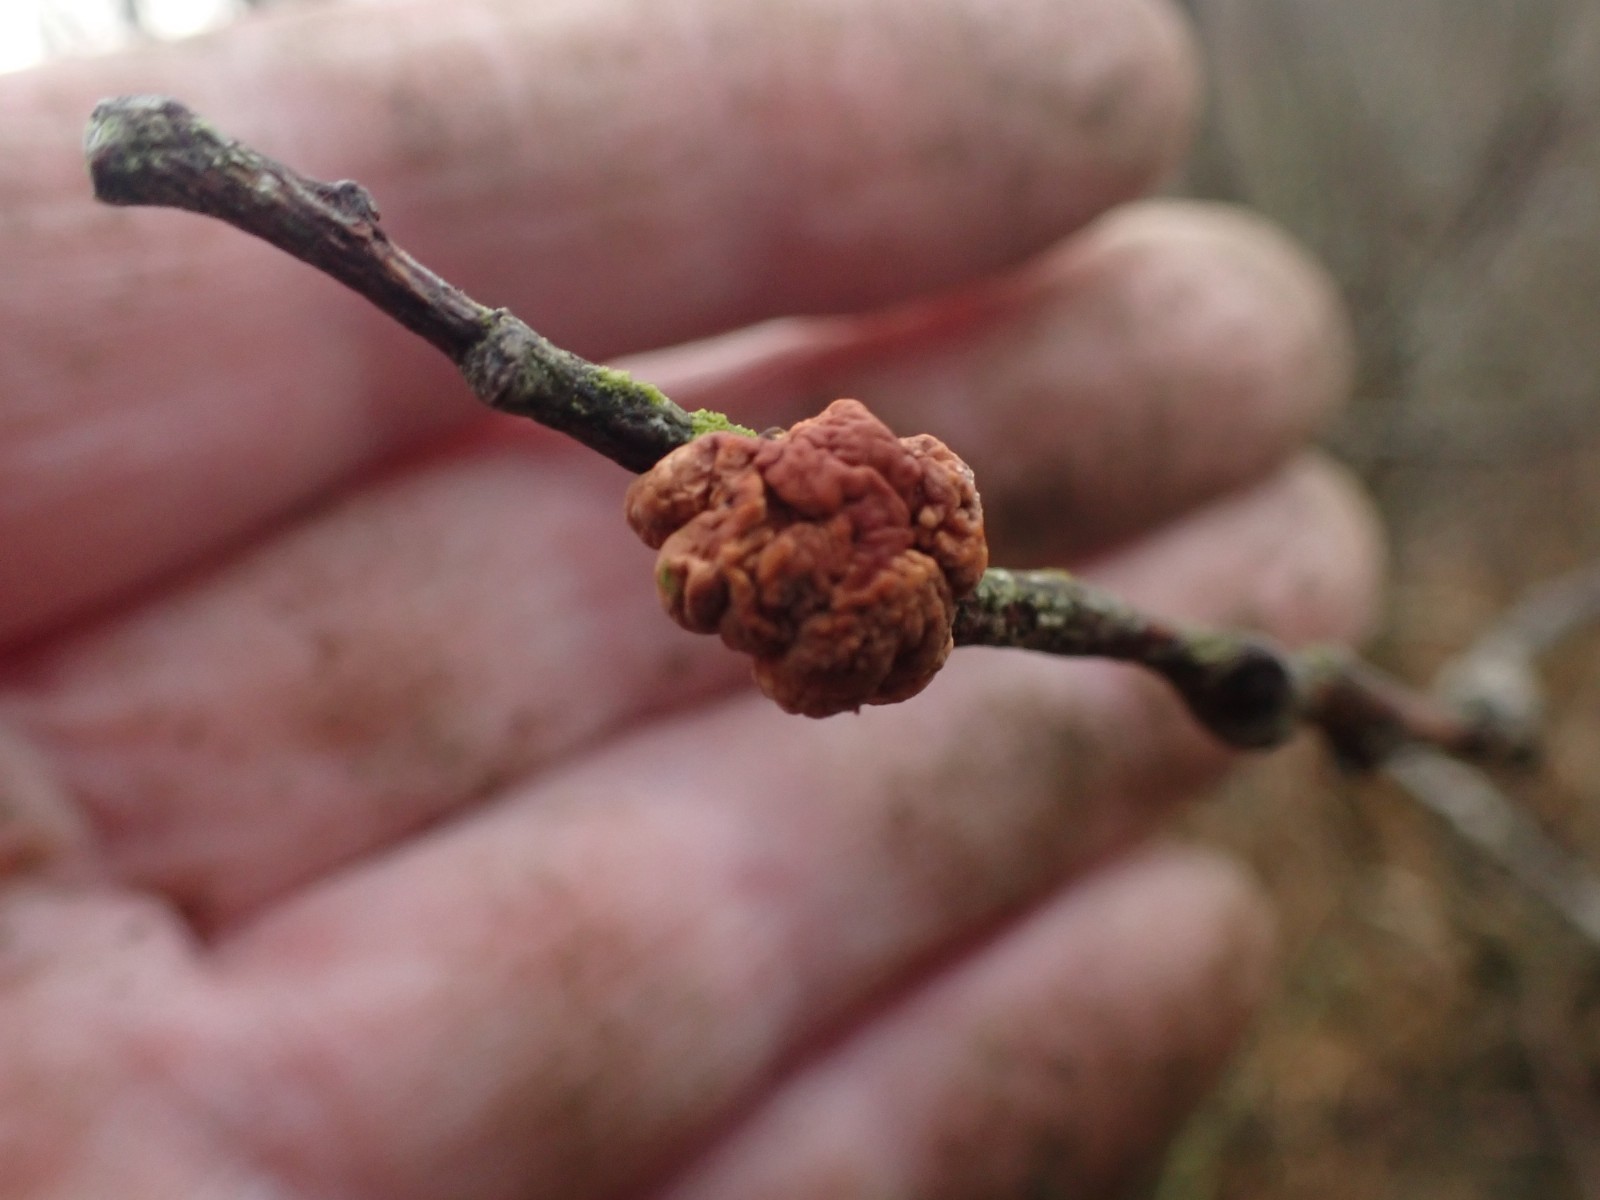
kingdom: Fungi
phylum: Ascomycota
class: Sordariomycetes
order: Hypocreales
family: Hypocreaceae
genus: Hypocreopsis
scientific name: Hypocreopsis lichenoides
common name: pilfinger
